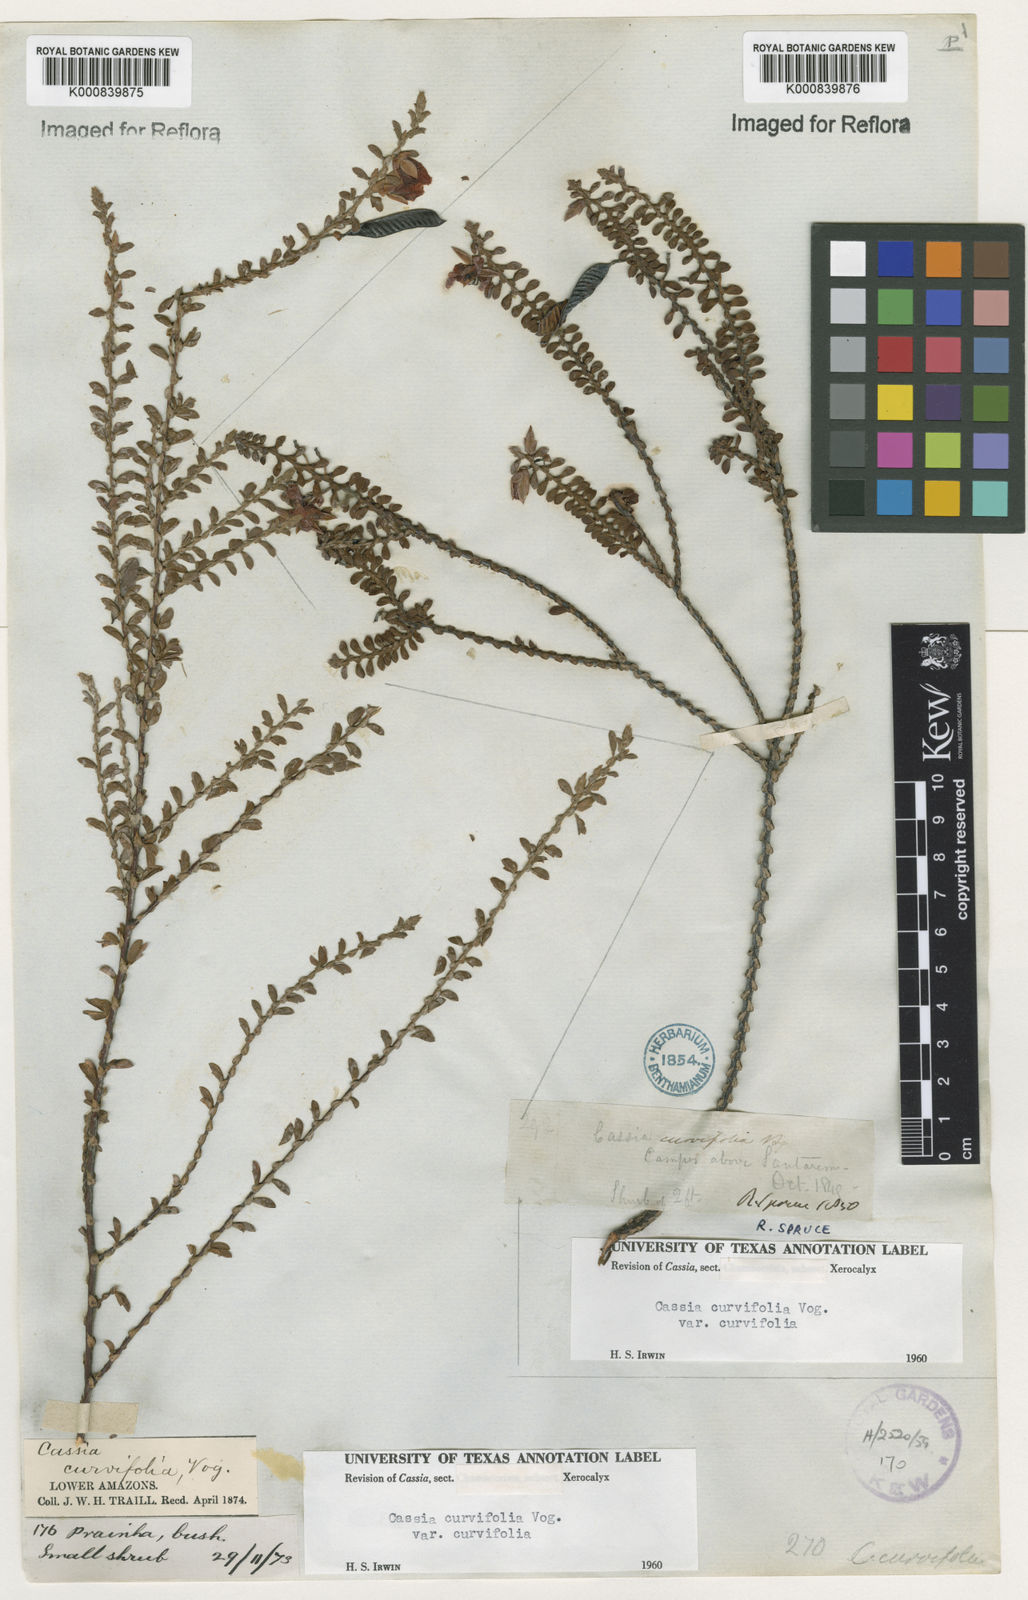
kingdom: Plantae
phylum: Tracheophyta
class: Magnoliopsida
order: Fabales
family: Fabaceae
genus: Chamaecrista
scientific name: Chamaecrista ramosa
